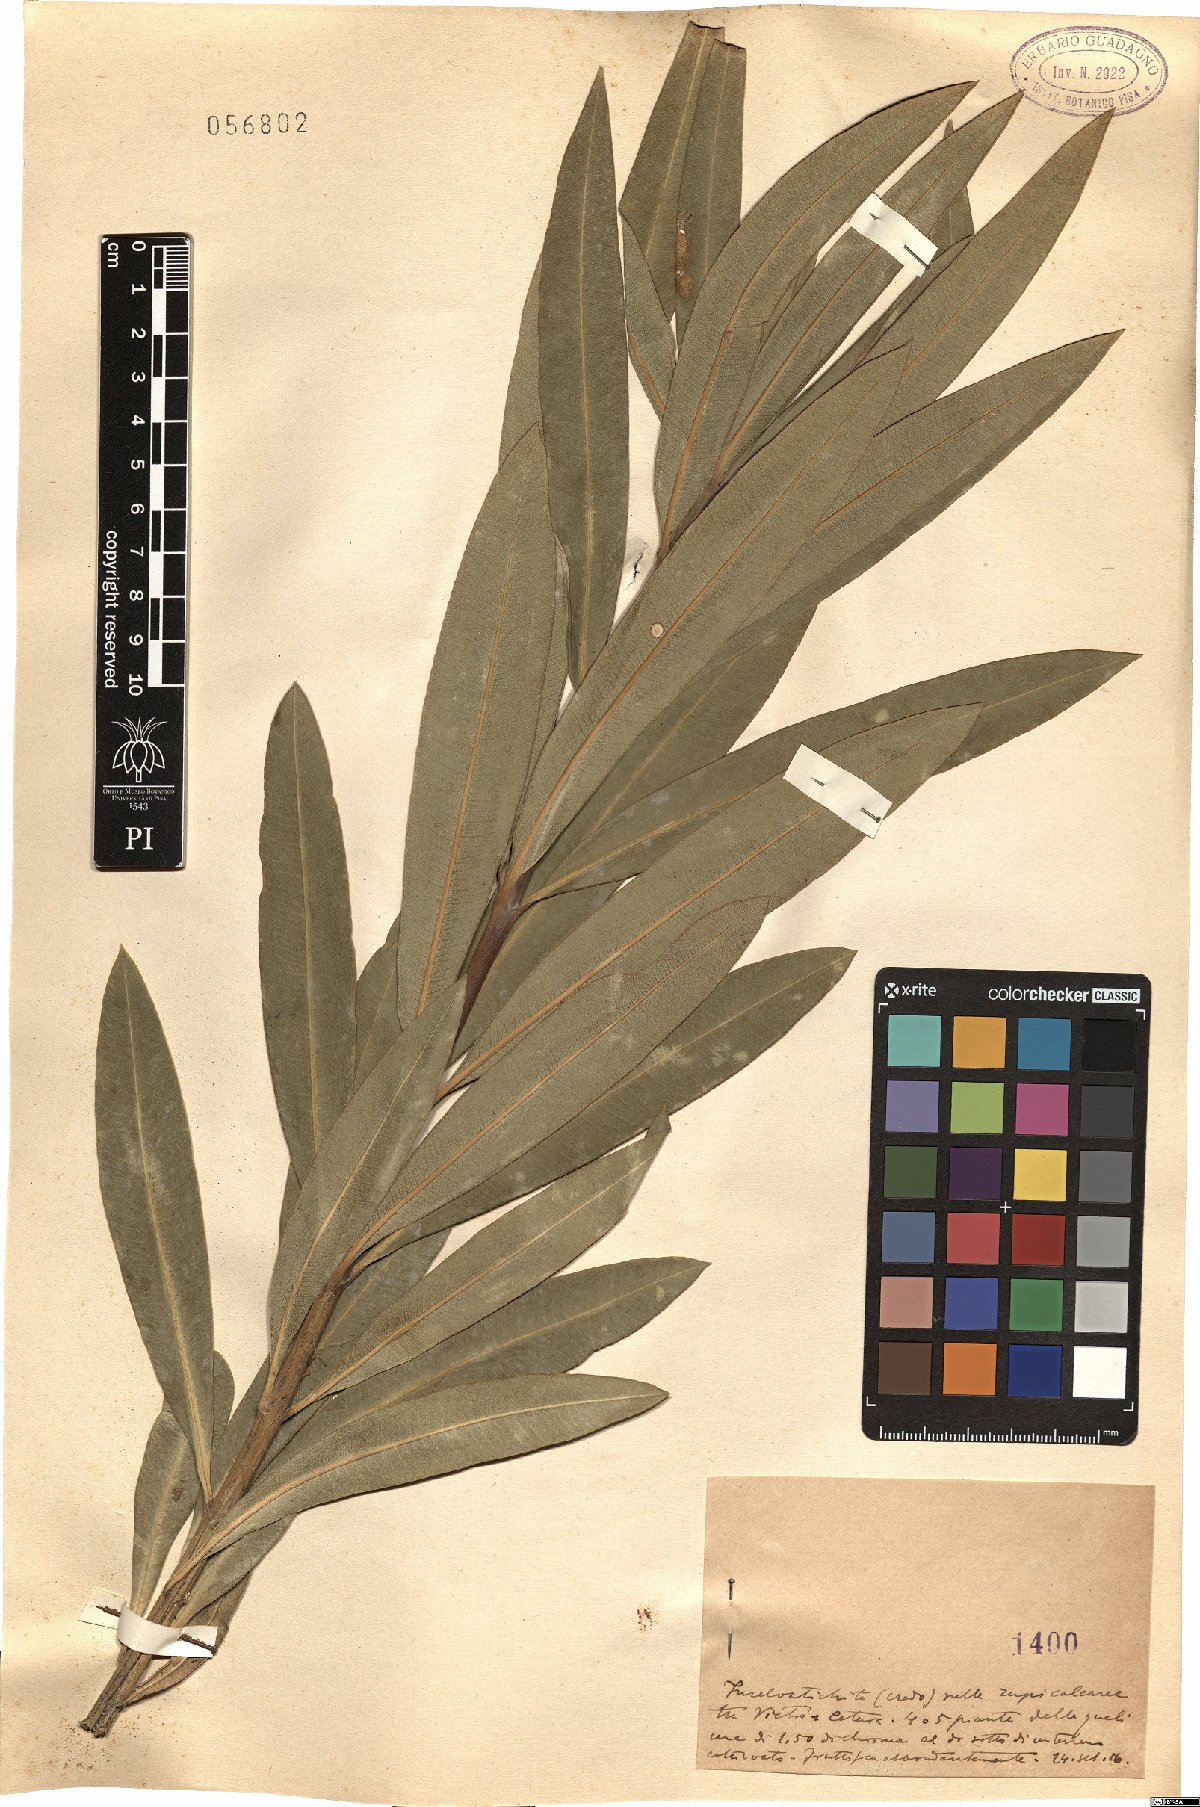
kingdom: Plantae
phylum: Tracheophyta
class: Magnoliopsida
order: Gentianales
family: Apocynaceae
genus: Nerium
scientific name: Nerium
